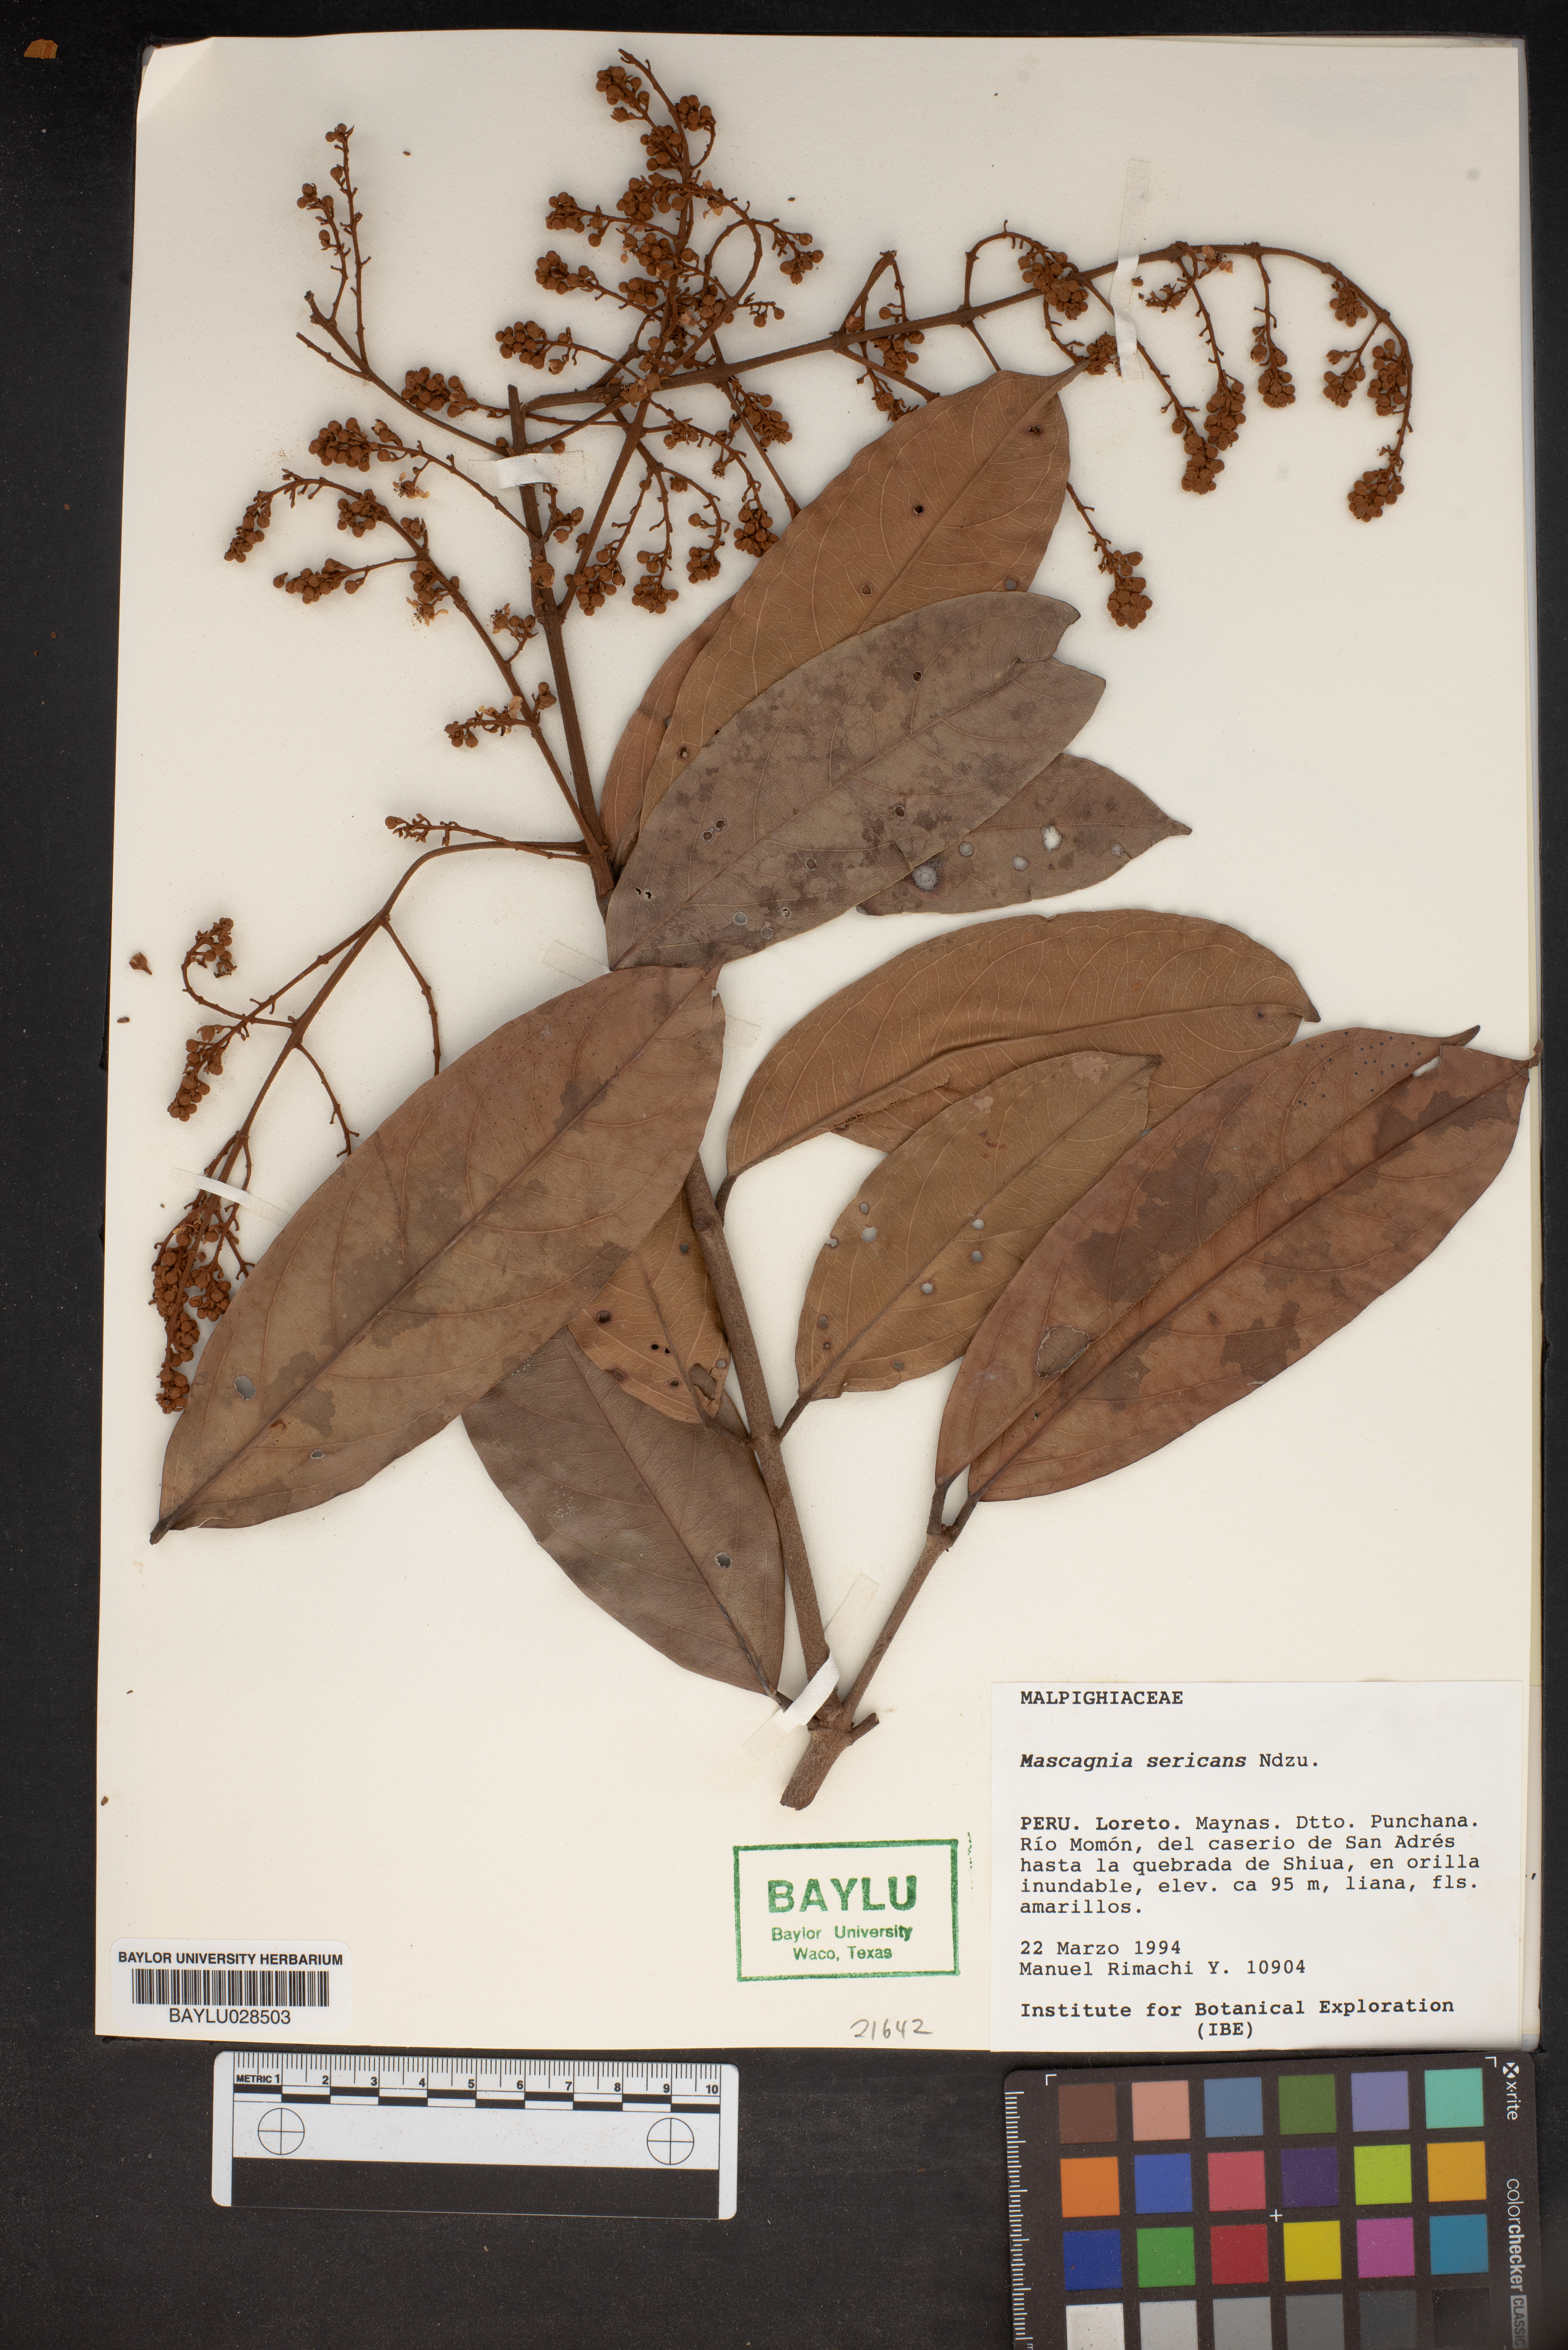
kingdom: Plantae
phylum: Tracheophyta
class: Magnoliopsida
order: Malpighiales
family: Malpighiaceae
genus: Calcicola
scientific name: Calcicola sericea
